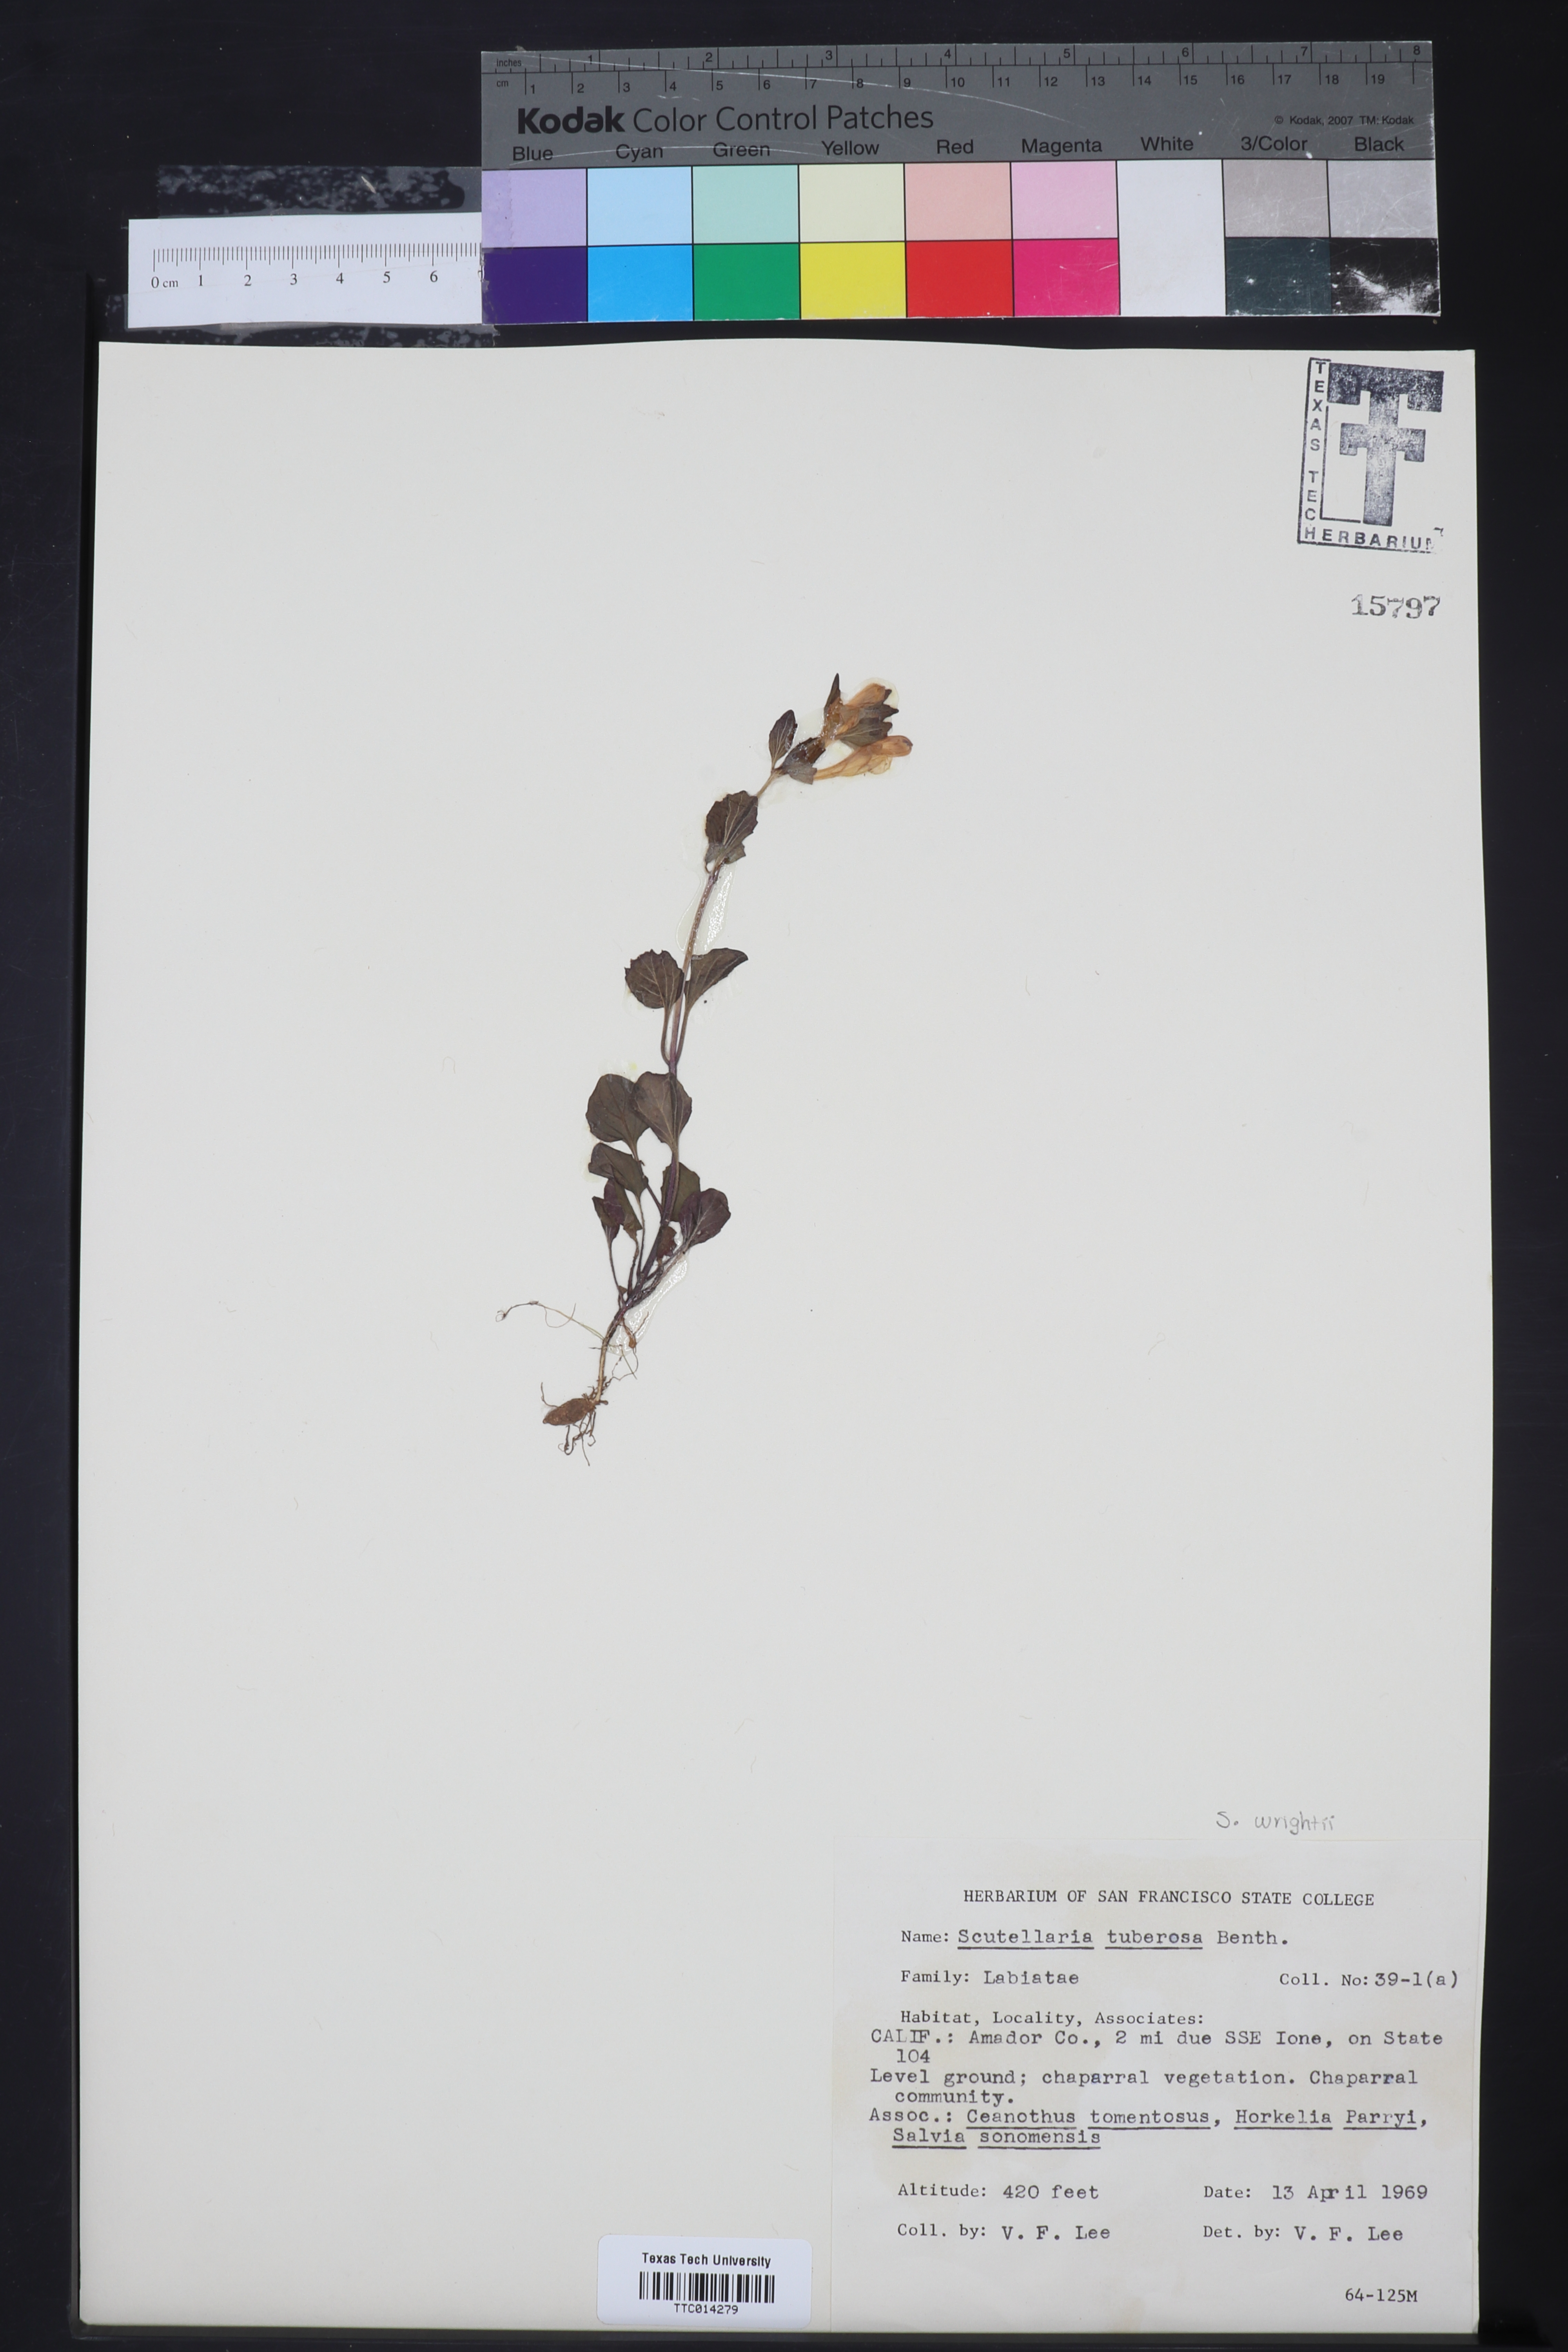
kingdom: Plantae
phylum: Tracheophyta
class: Magnoliopsida
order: Lamiales
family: Lamiaceae
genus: Scutellaria
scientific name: Scutellaria tuberosa
